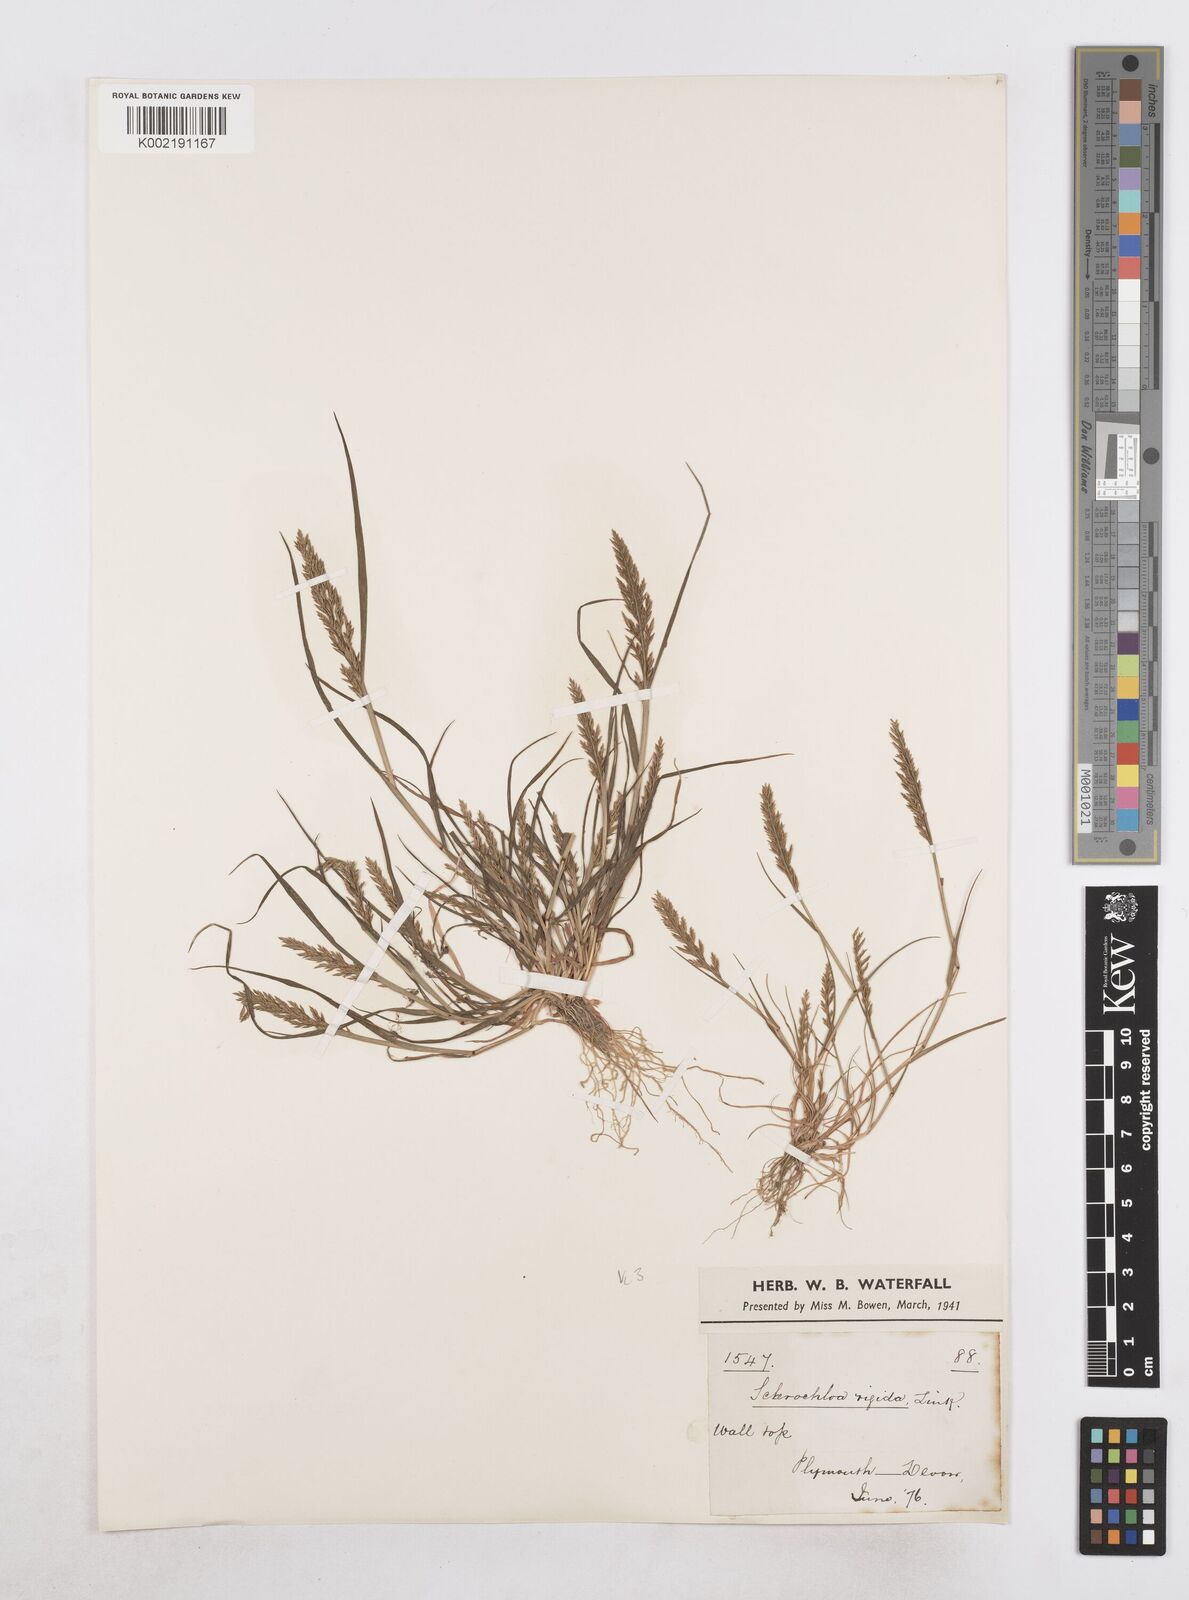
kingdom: Plantae
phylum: Tracheophyta
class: Liliopsida
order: Poales
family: Poaceae
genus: Catapodium
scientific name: Catapodium rigidum
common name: Fern-grass
